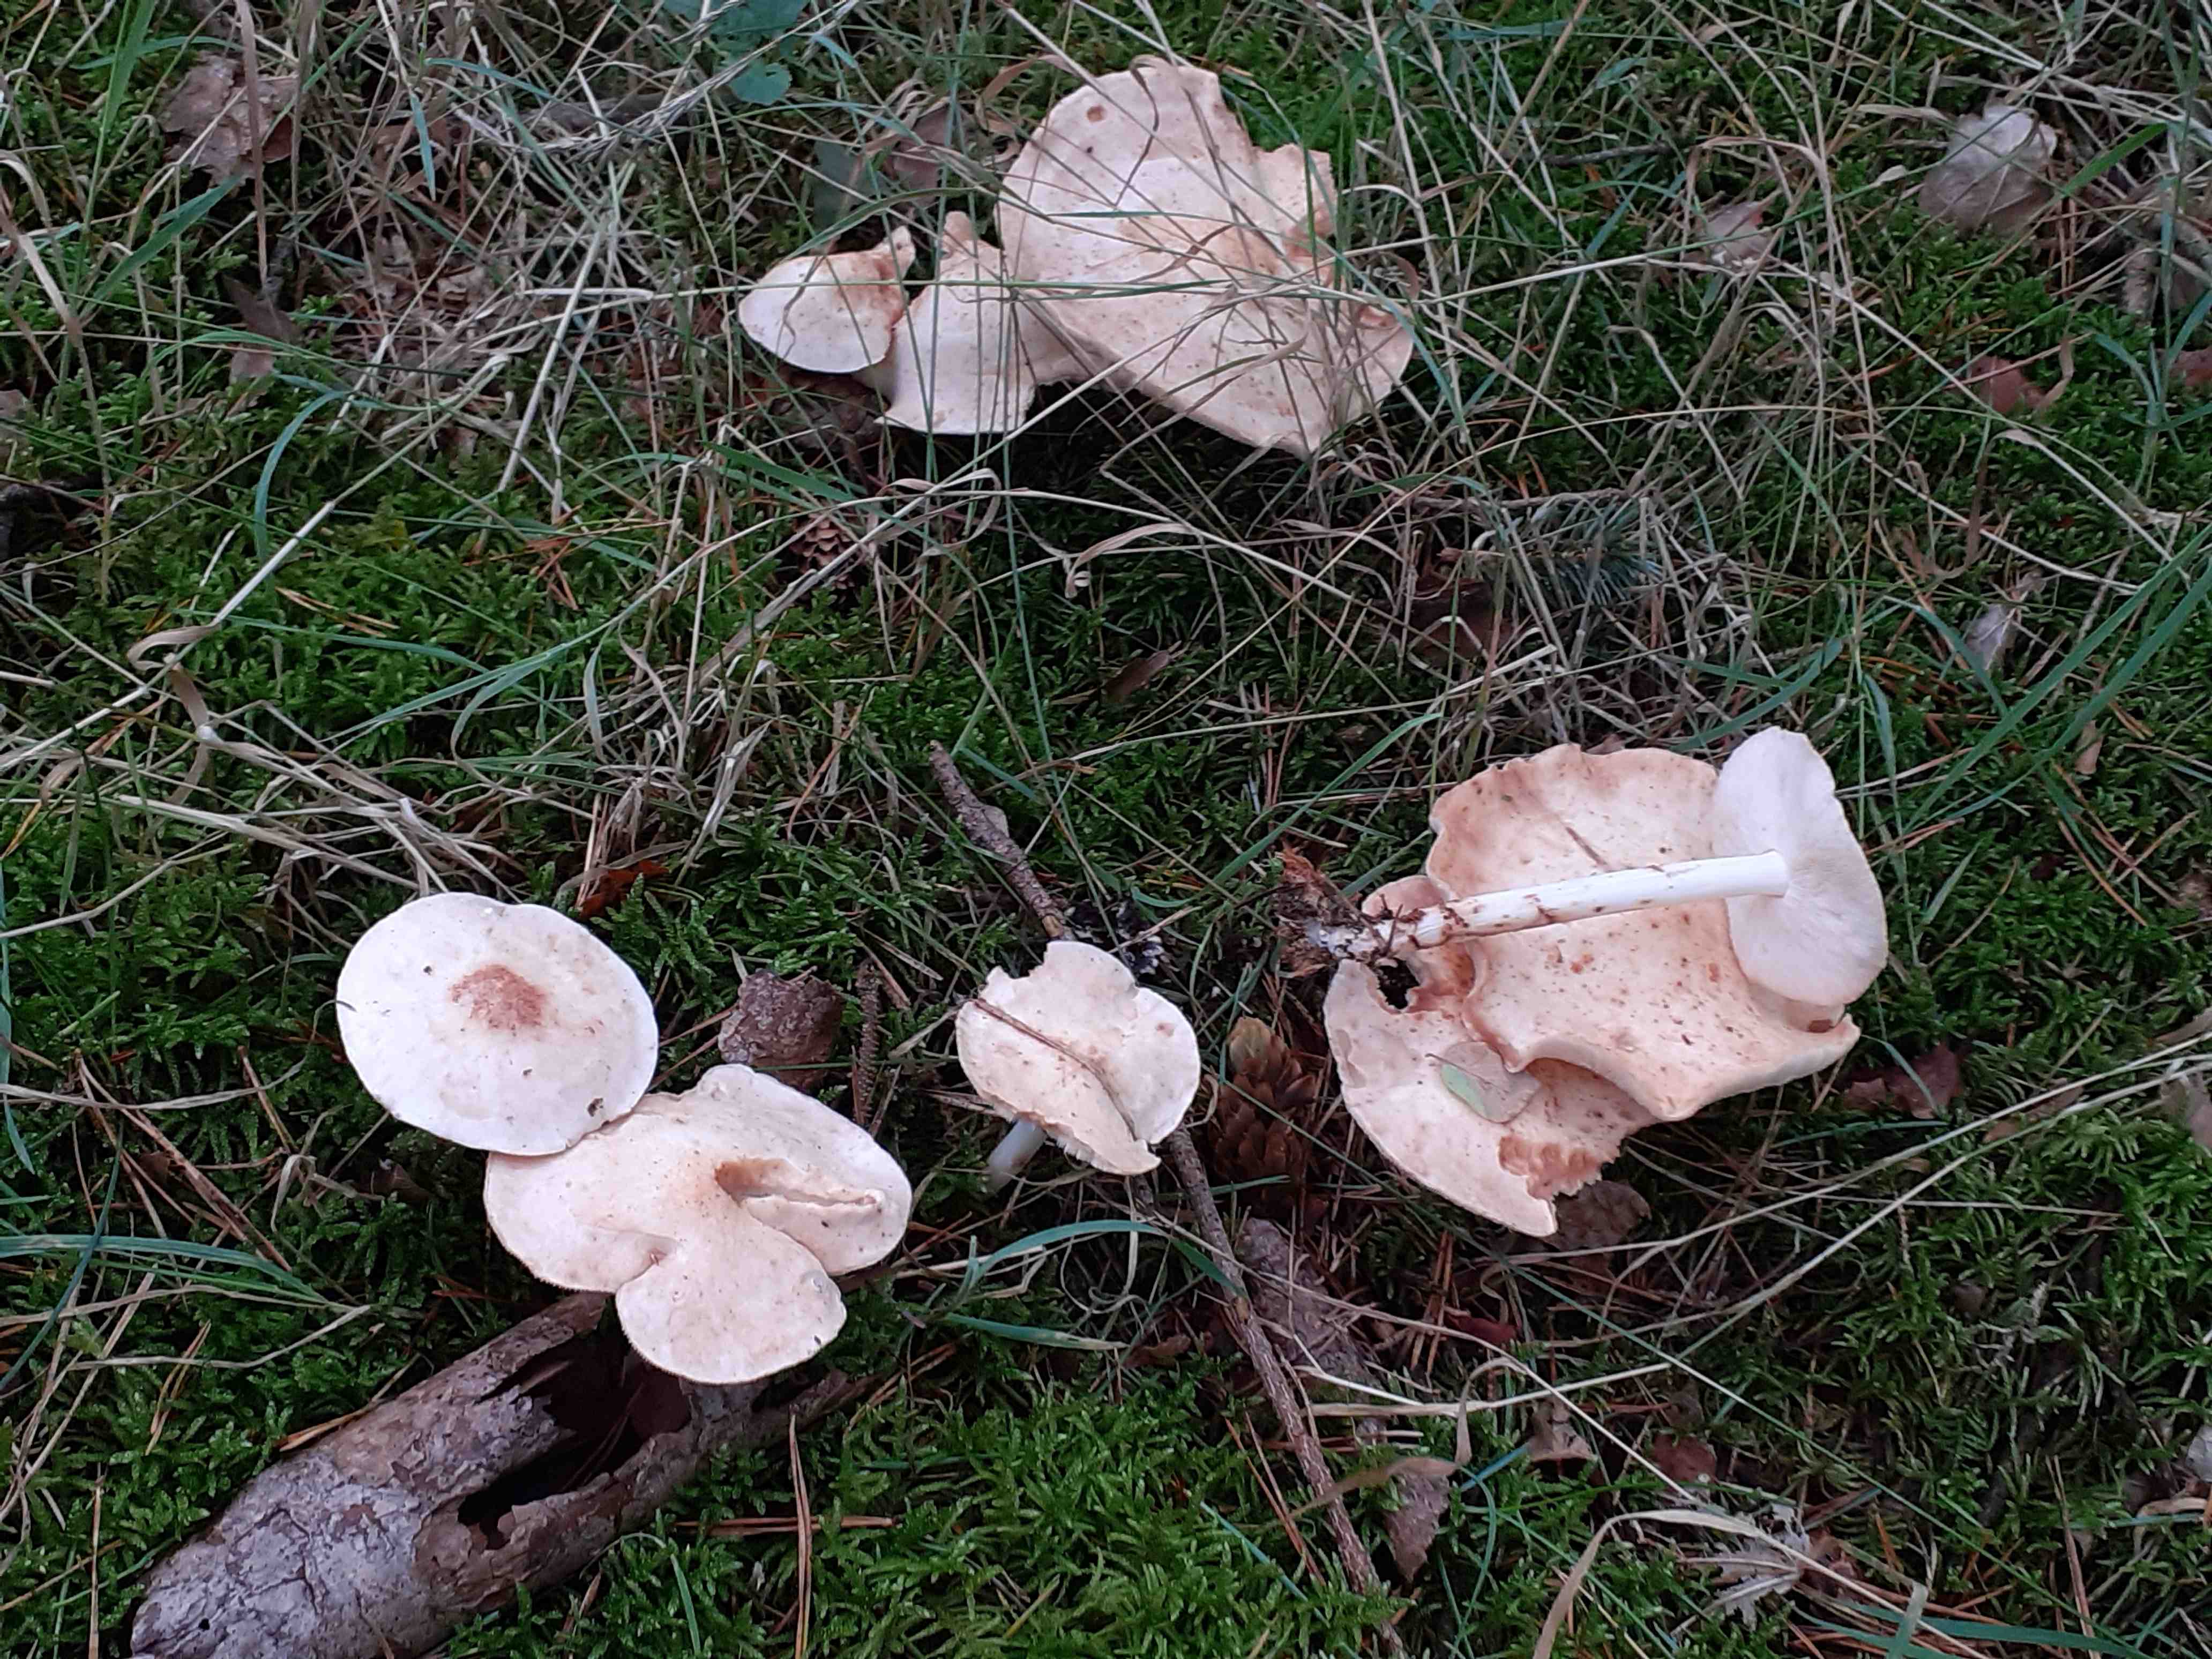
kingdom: Fungi
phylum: Basidiomycota
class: Agaricomycetes
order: Agaricales
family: Omphalotaceae
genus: Rhodocollybia
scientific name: Rhodocollybia maculata
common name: plettet fladhat
